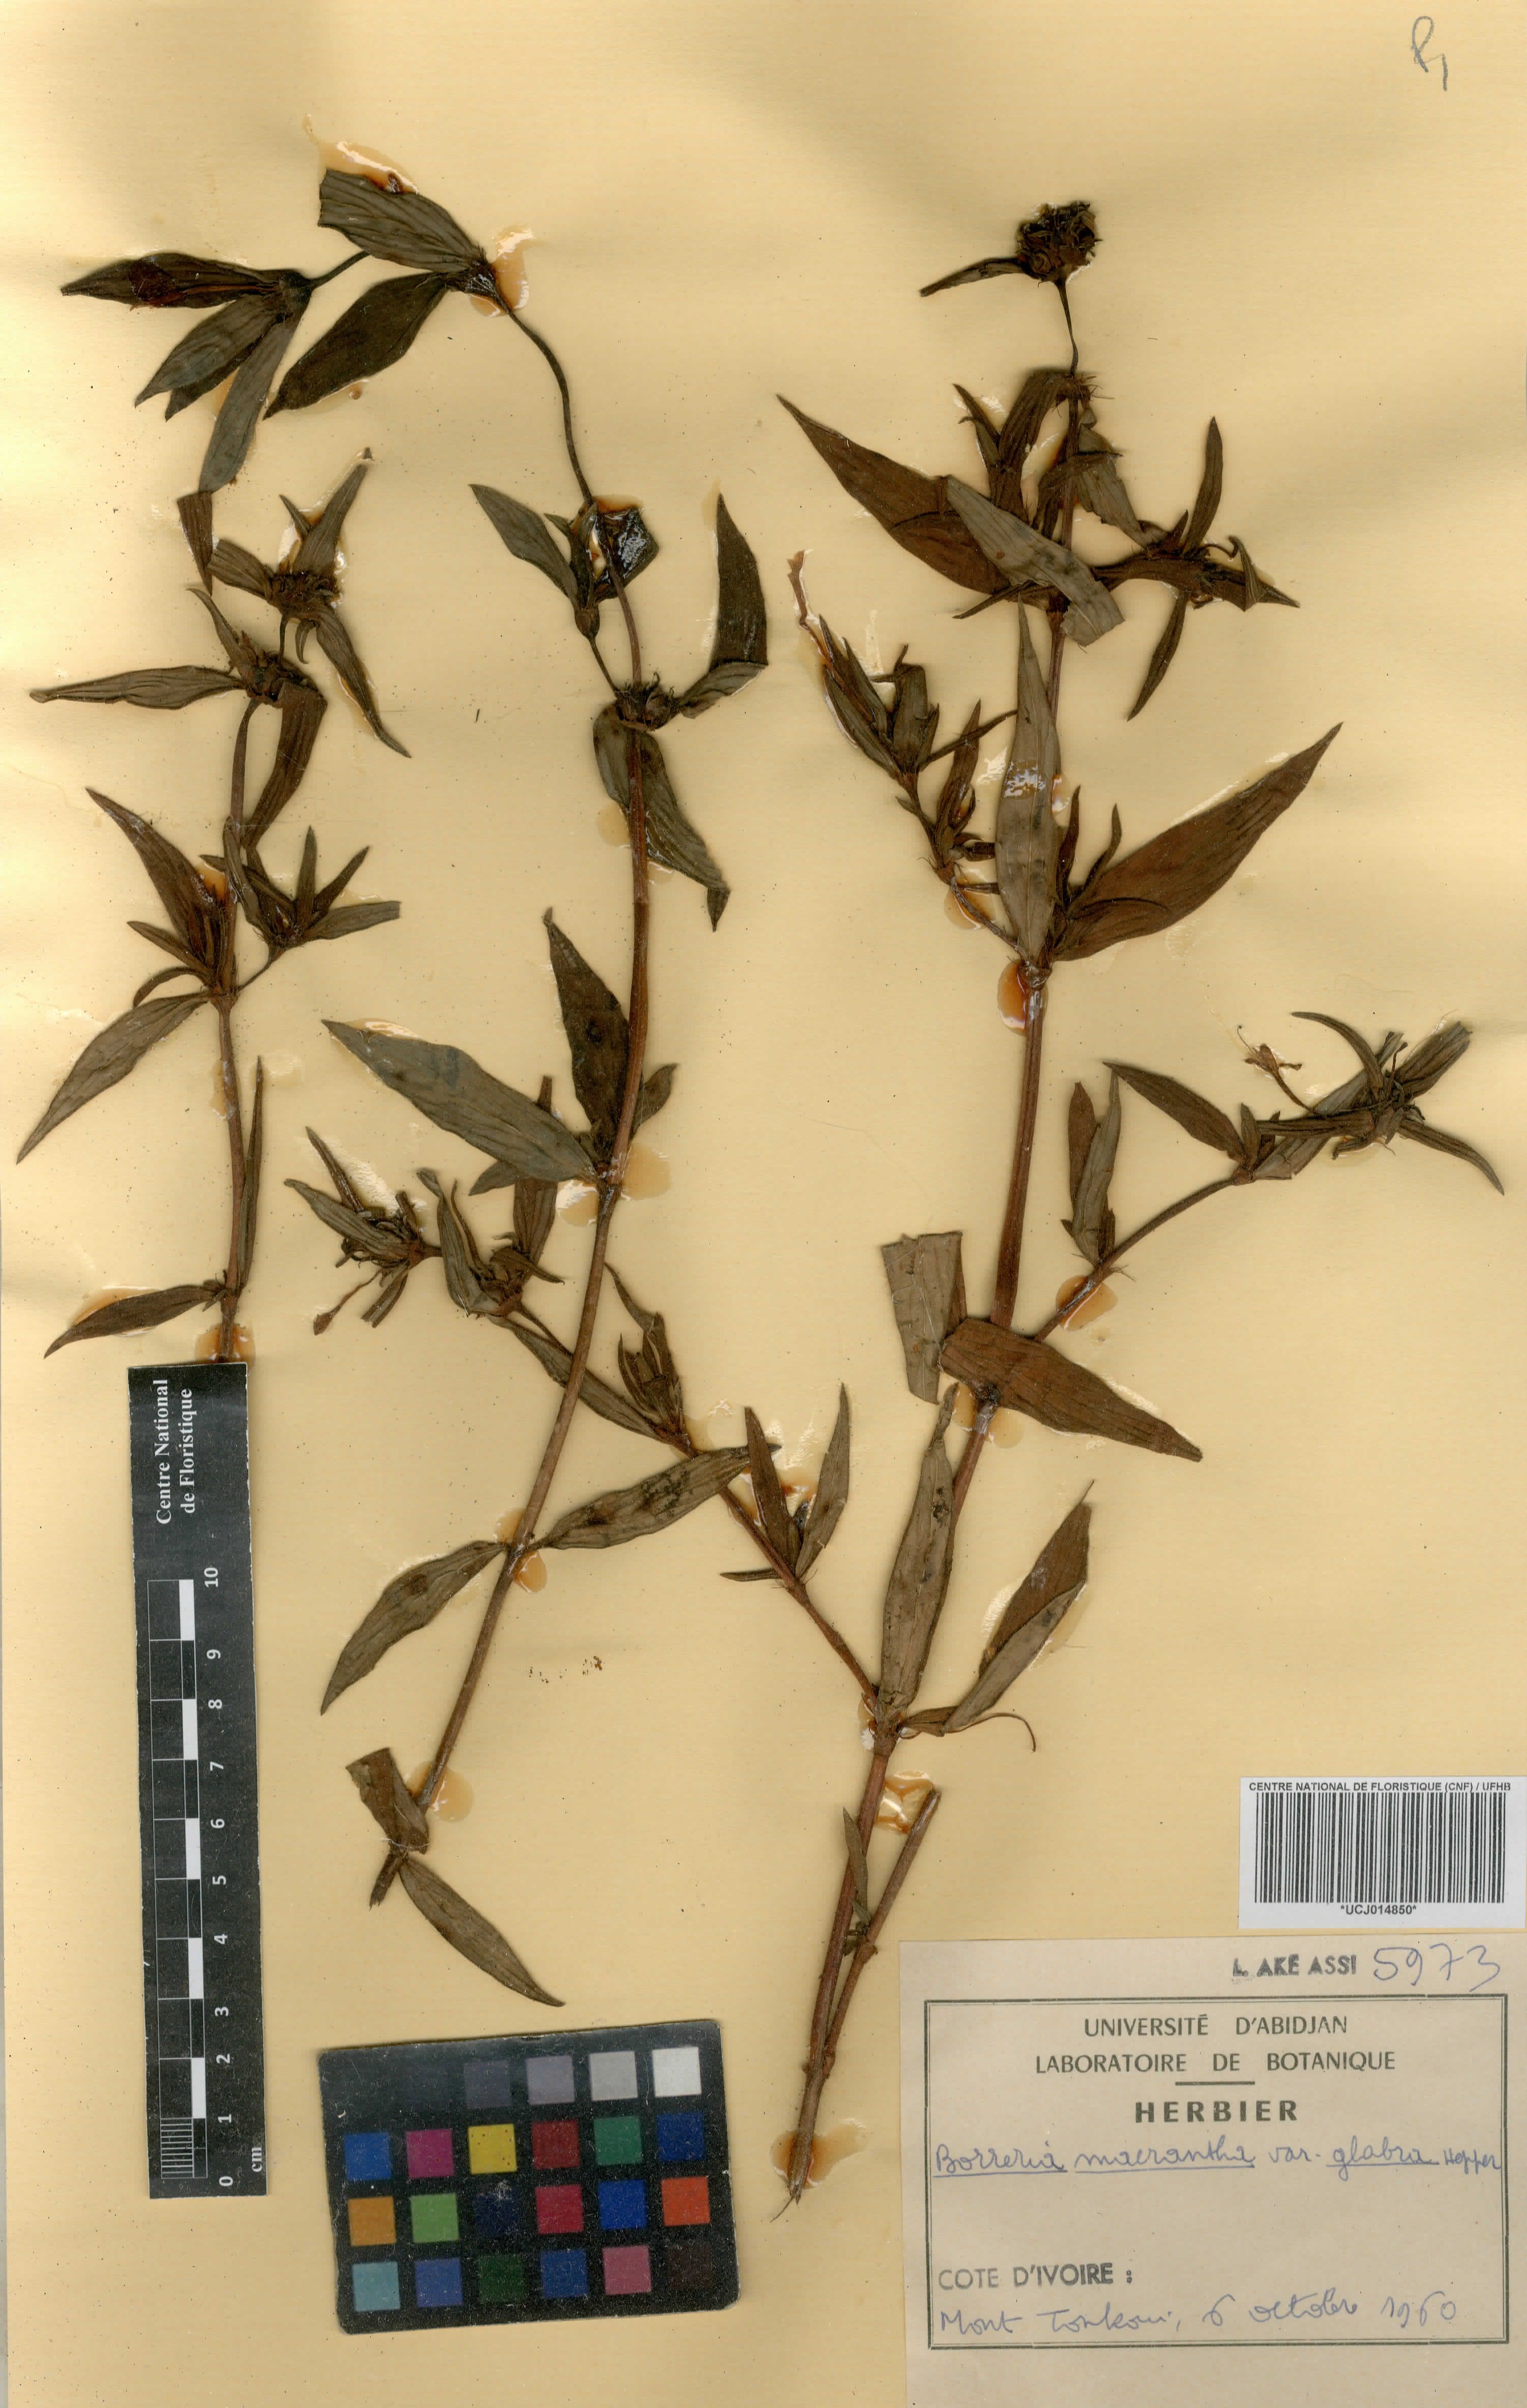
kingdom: Plantae
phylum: Tracheophyta
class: Magnoliopsida
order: Gentianales
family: Rubiaceae
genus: Spermacoce
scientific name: Spermacoce ivorensis
